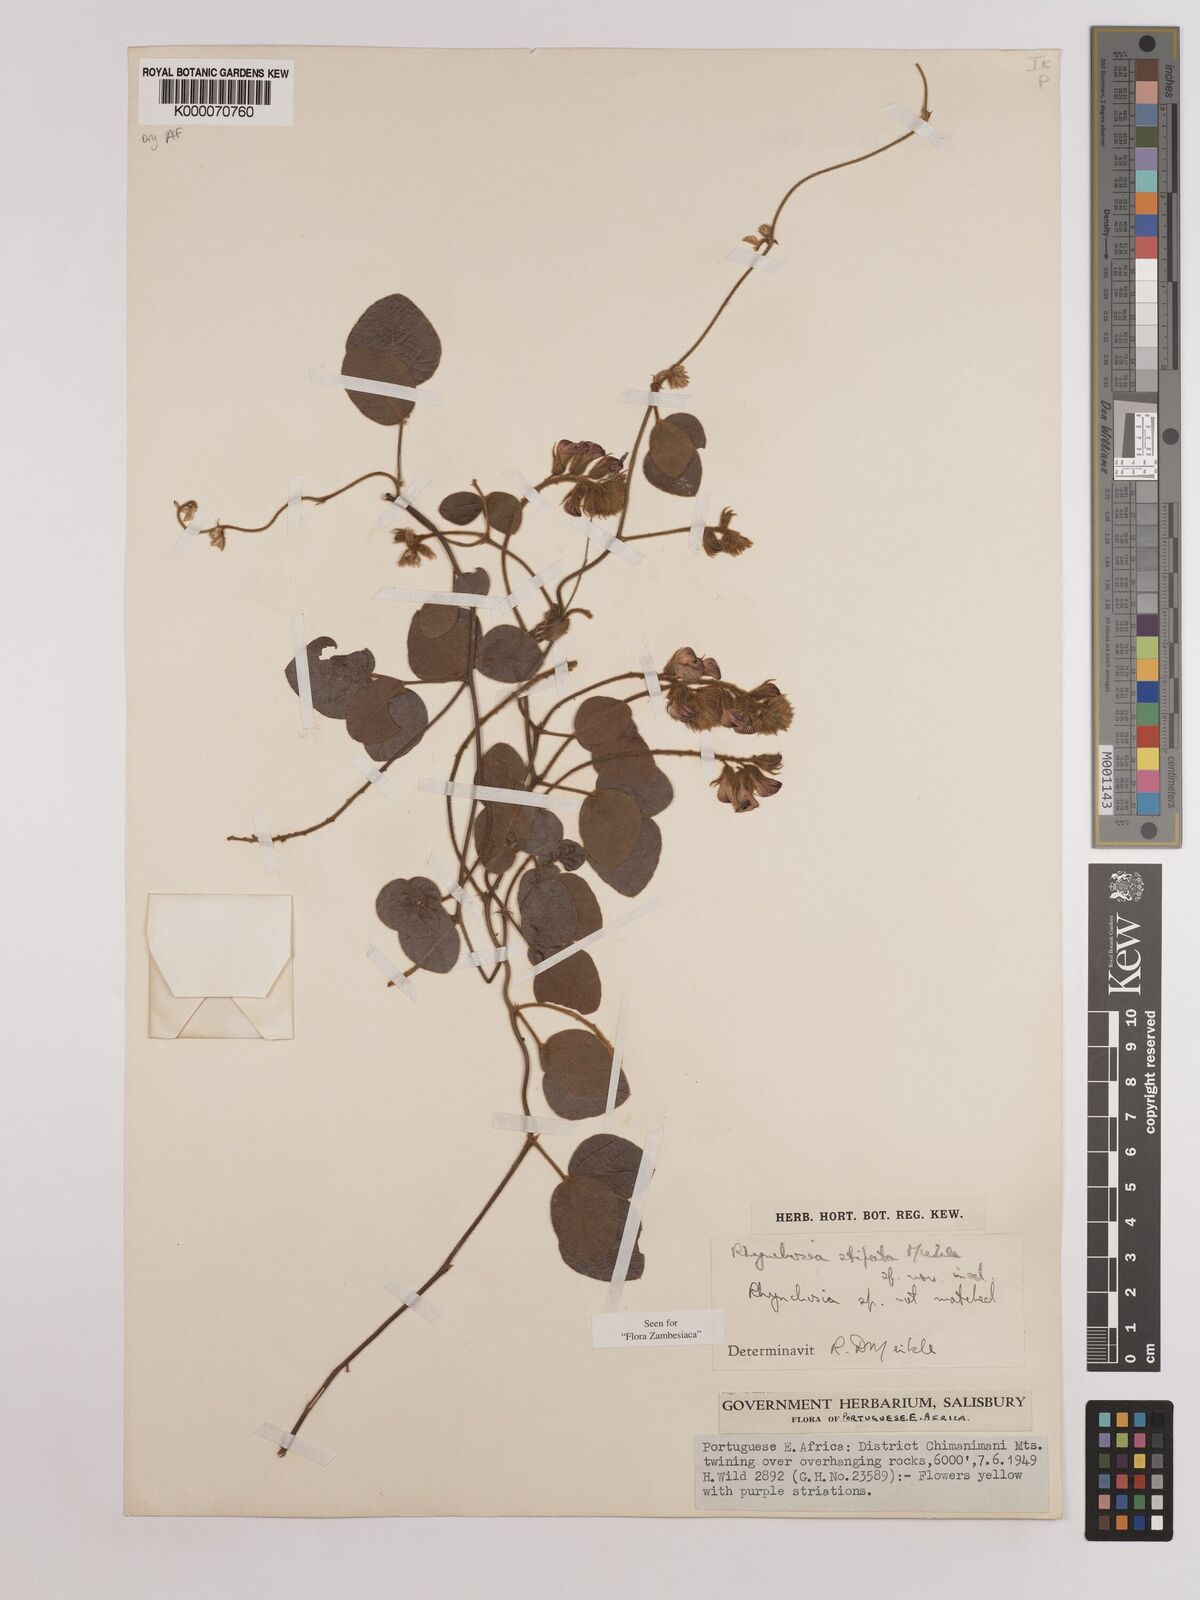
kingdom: Plantae
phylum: Tracheophyta
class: Magnoliopsida
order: Fabales
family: Fabaceae
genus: Rhynchosia
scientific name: Rhynchosia stipata
